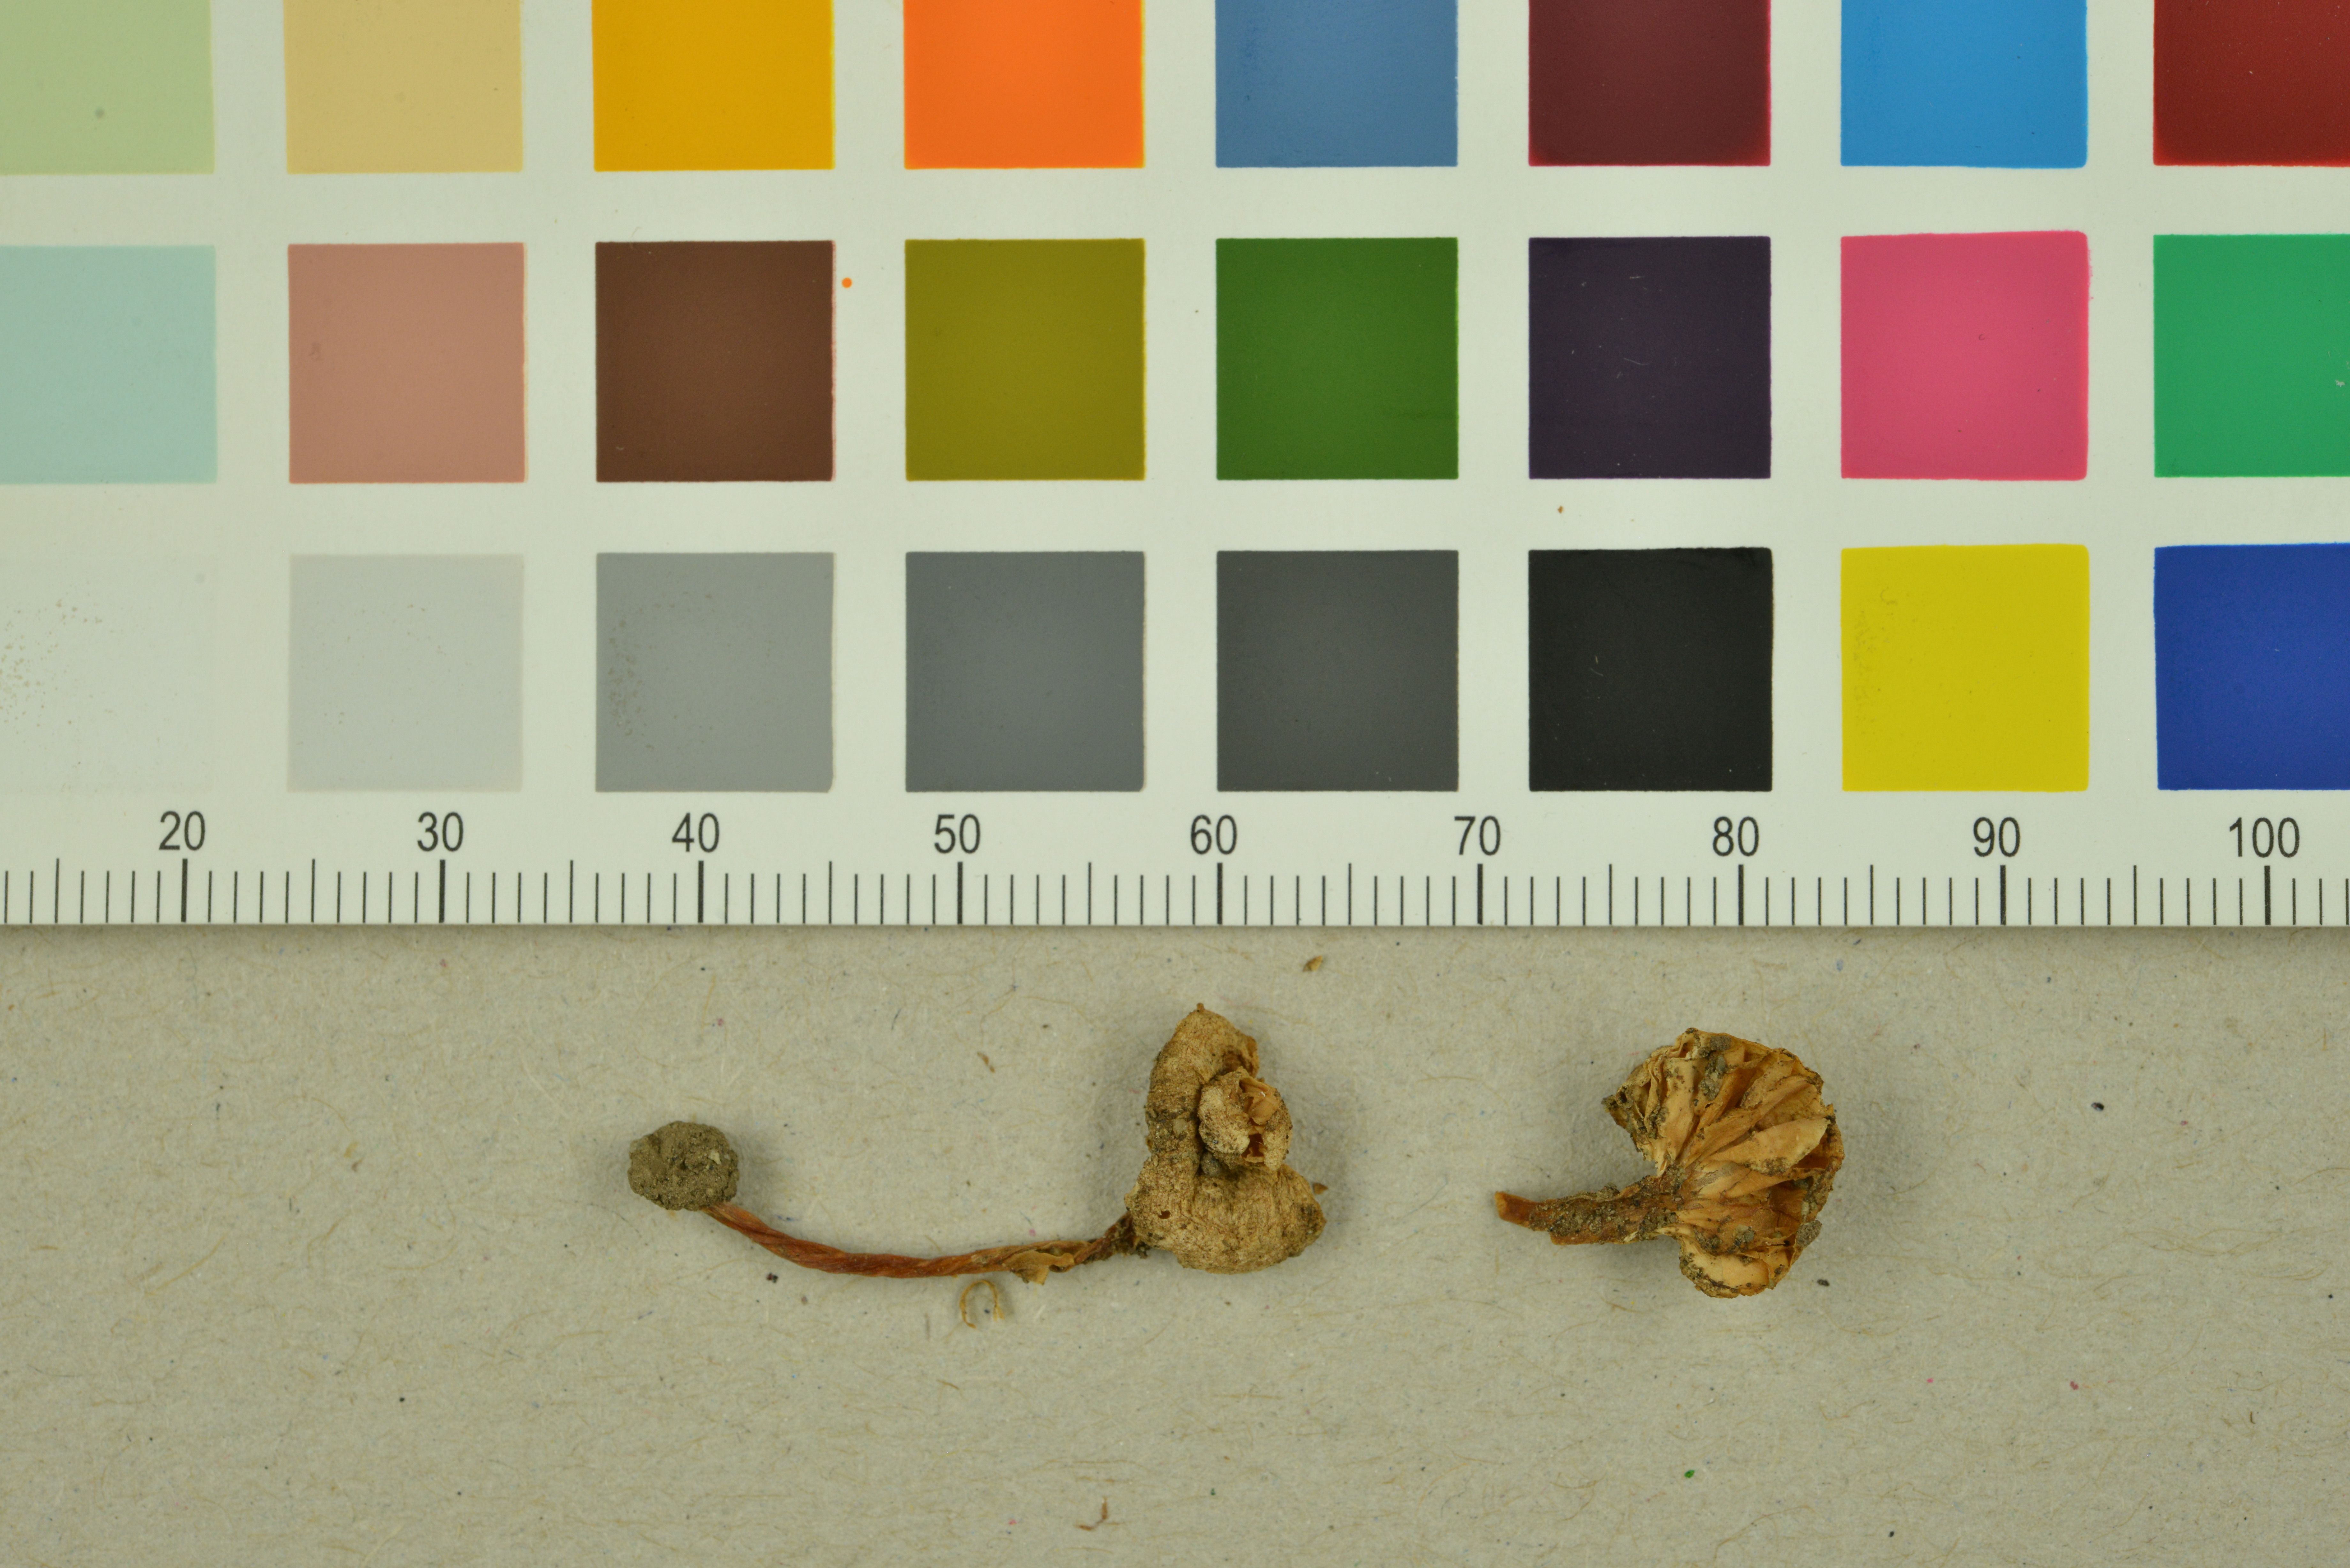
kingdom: Fungi
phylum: Basidiomycota
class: Agaricomycetes
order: Agaricales
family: Entolomataceae
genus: Entoloma
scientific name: Entoloma rhombisporum
